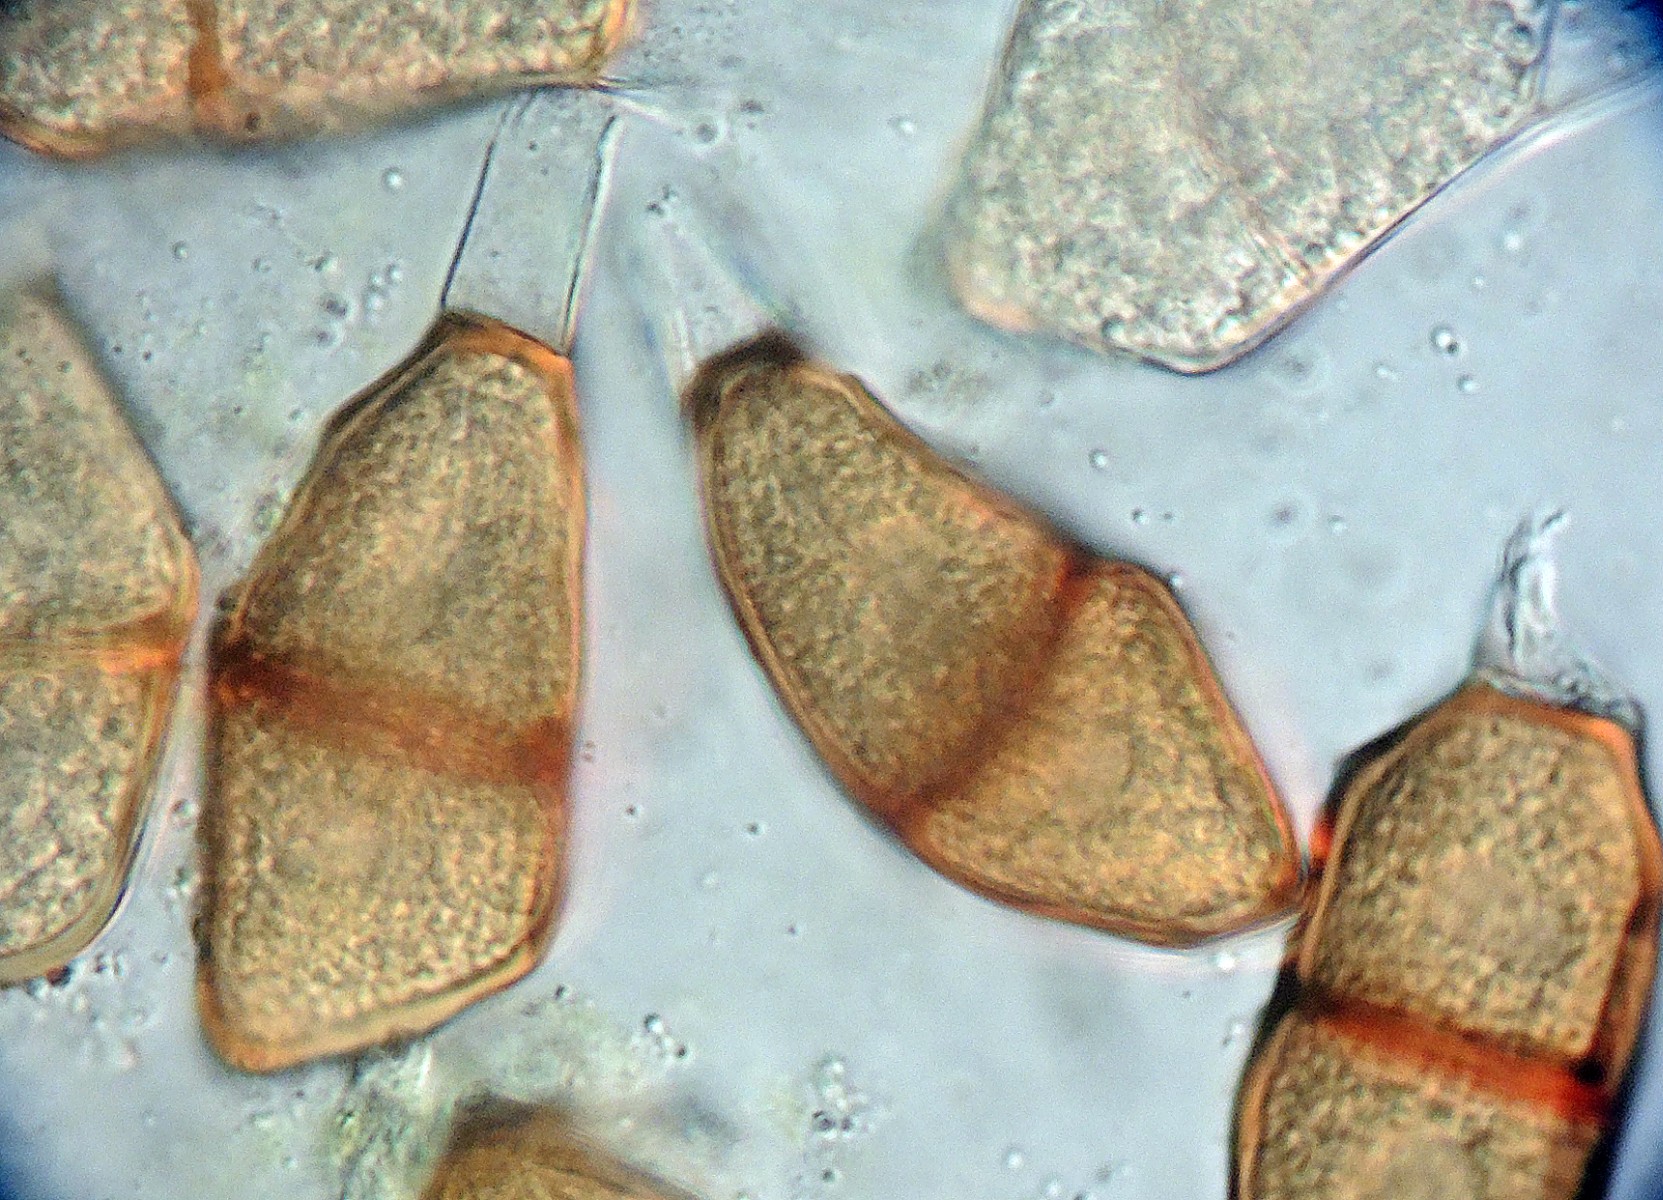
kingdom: Fungi
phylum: Basidiomycota
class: Pucciniomycetes
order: Pucciniales
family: Pucciniaceae
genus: Puccinia
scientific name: Puccinia liliacearum
